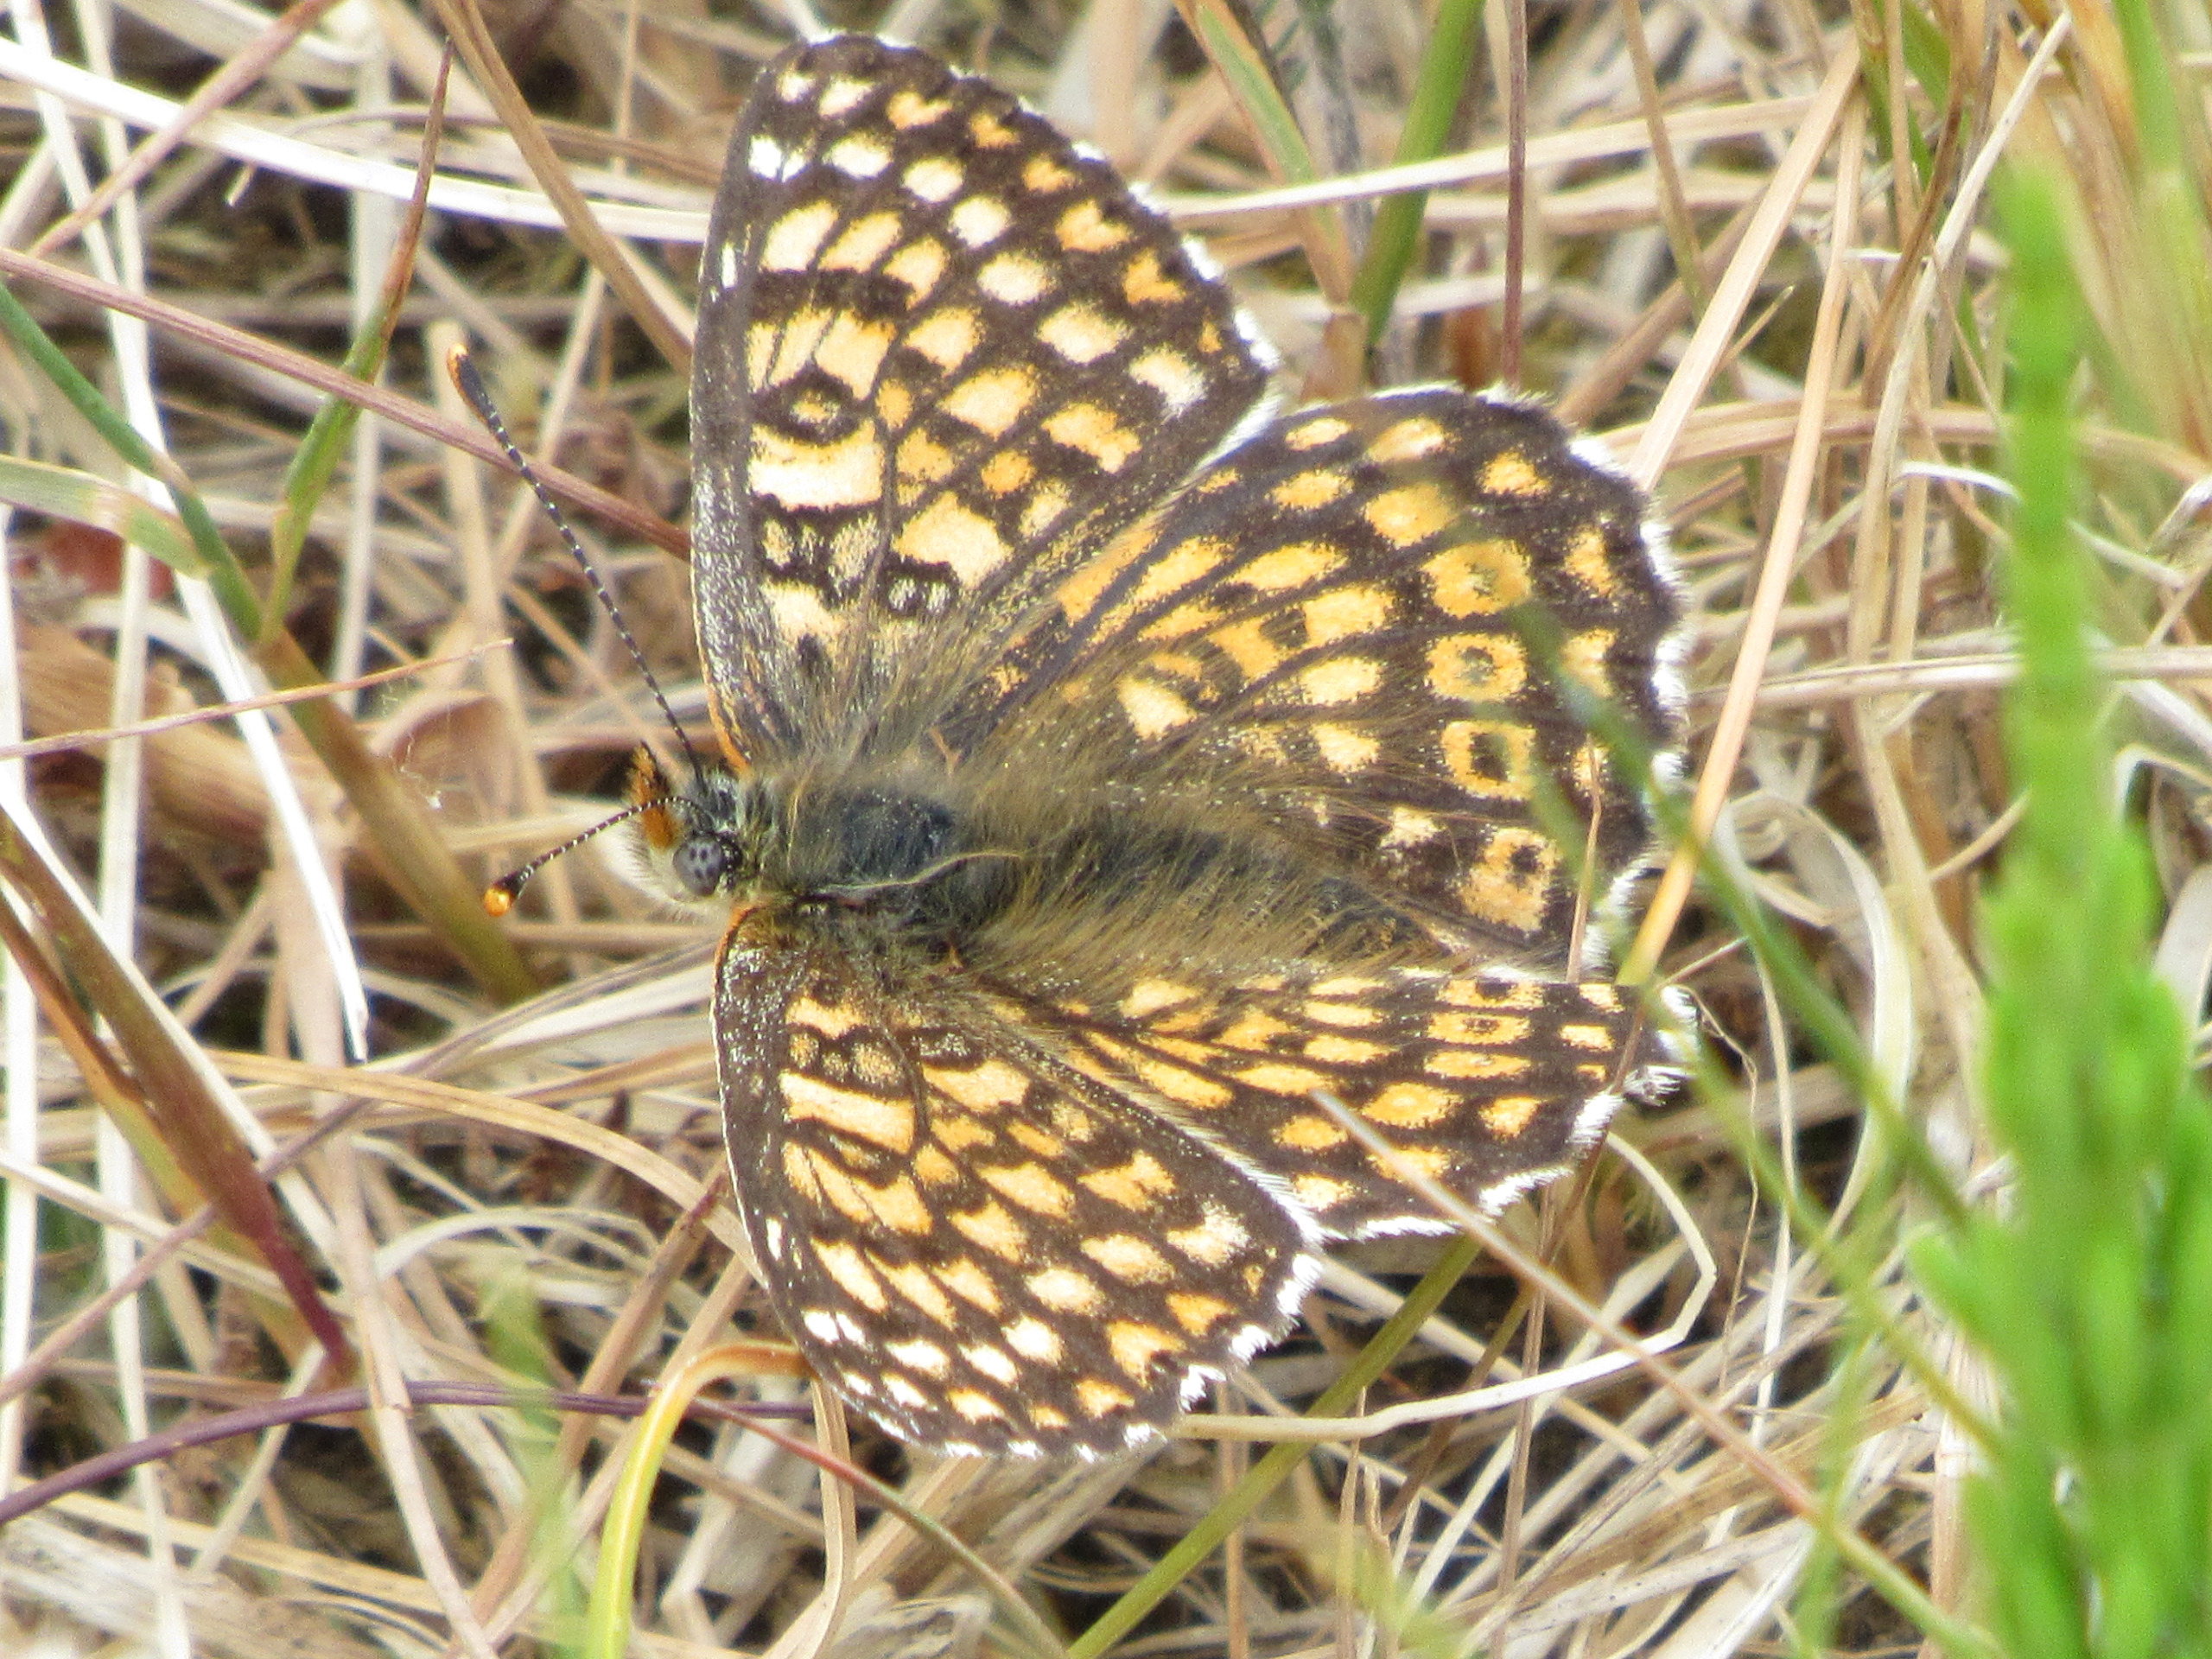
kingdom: Animalia
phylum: Arthropoda
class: Insecta
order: Lepidoptera
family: Nymphalidae
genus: Melitaea
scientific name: Melitaea cinxia
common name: Okkergul pletvinge
